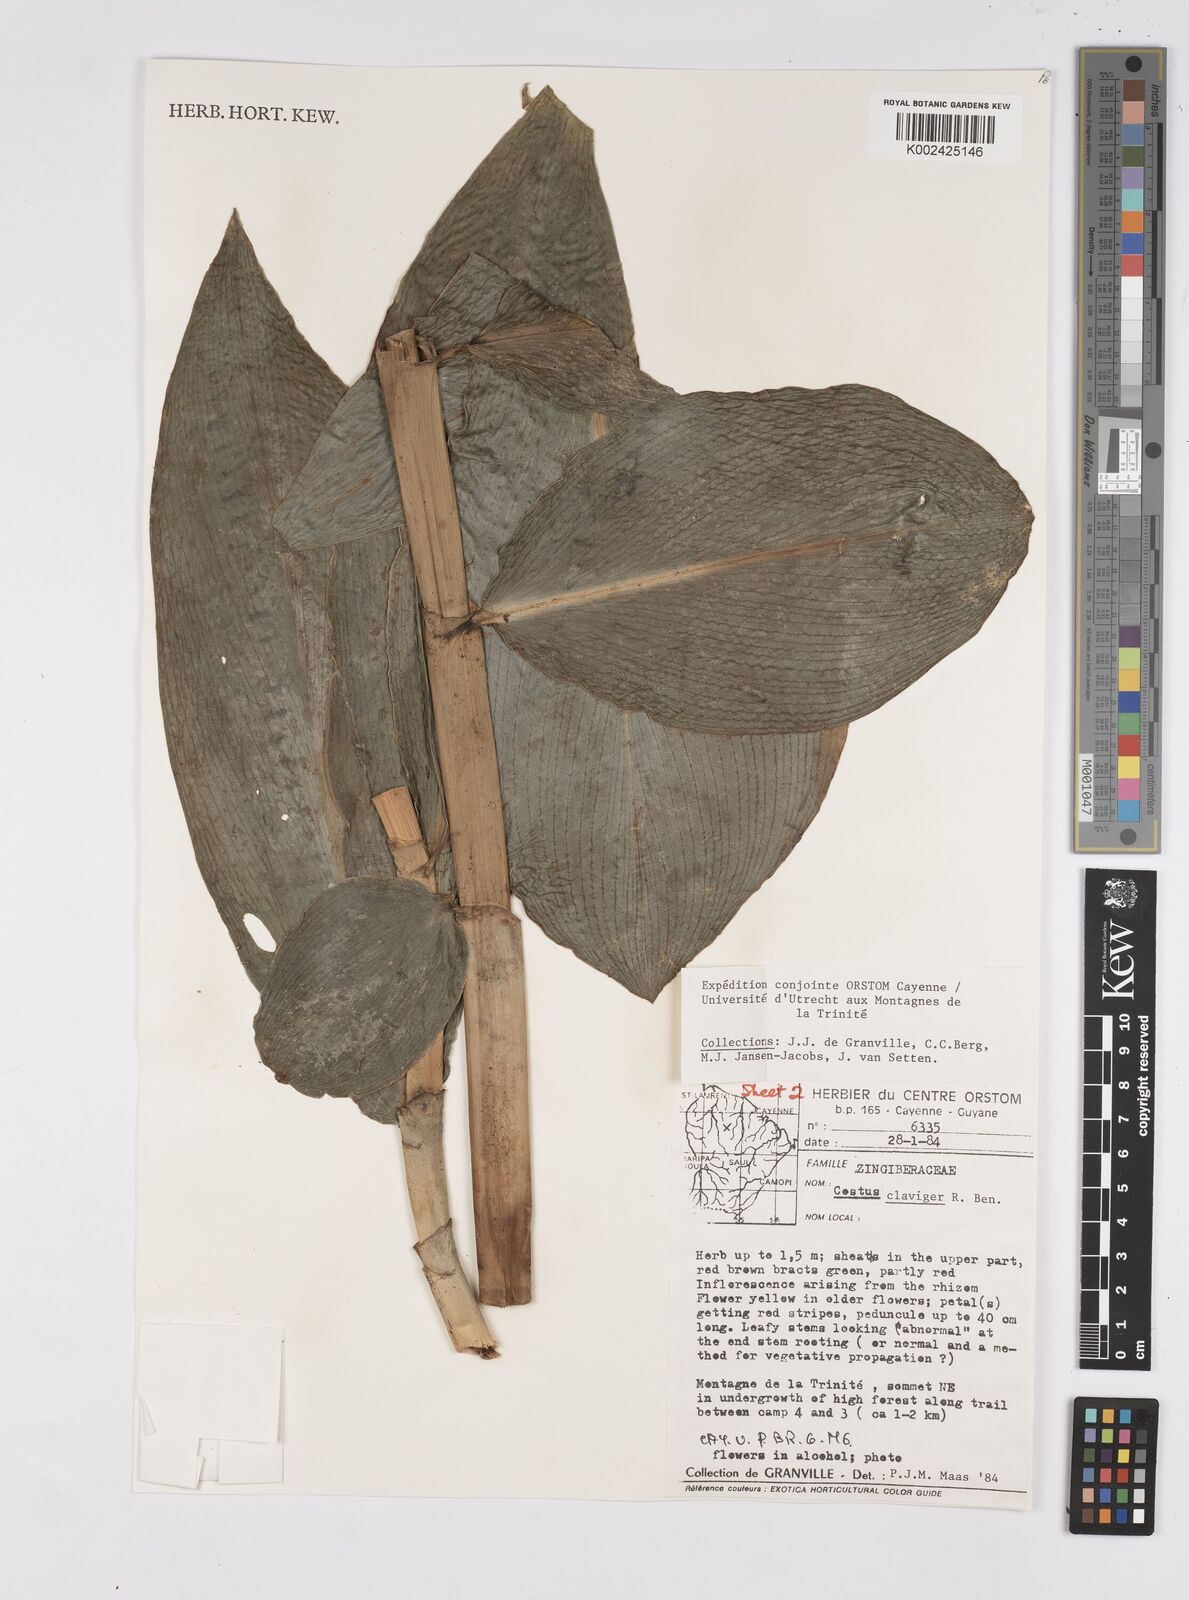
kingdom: Plantae
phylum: Tracheophyta
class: Liliopsida
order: Zingiberales
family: Costaceae
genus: Costus
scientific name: Costus claviger
